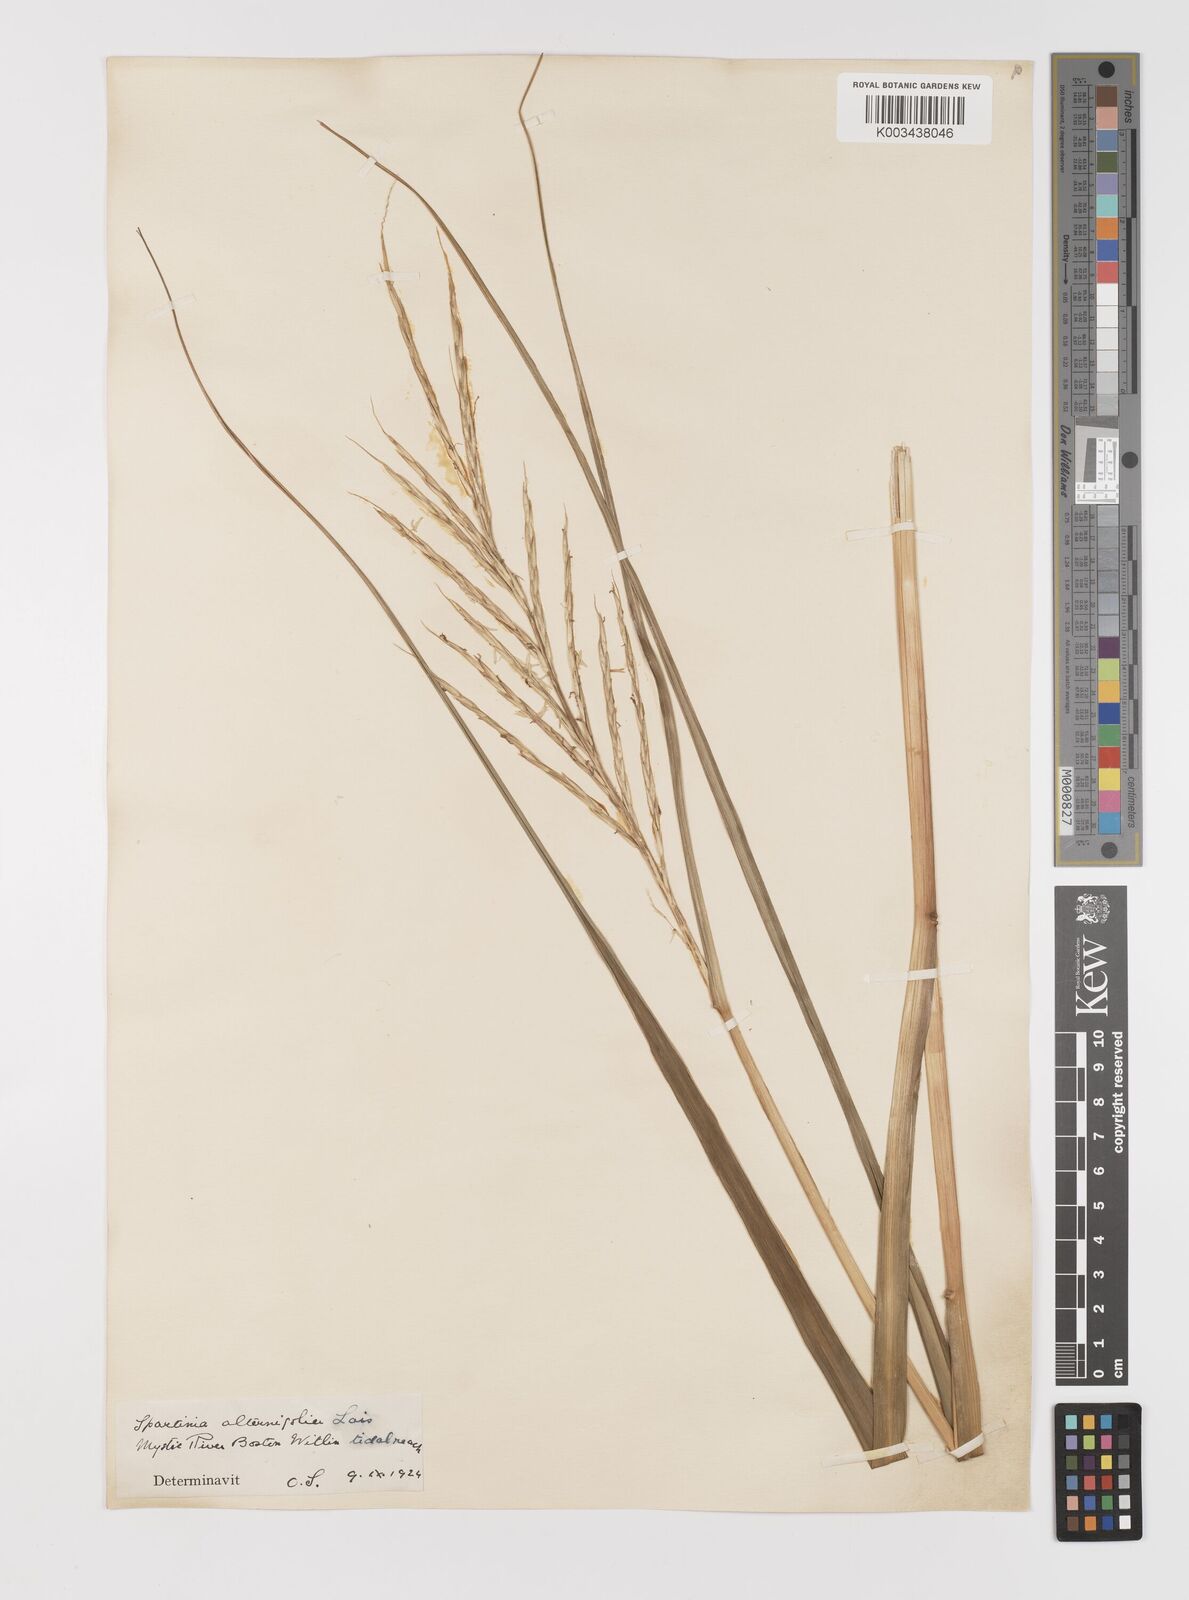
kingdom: Plantae
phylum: Tracheophyta
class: Liliopsida
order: Poales
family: Poaceae
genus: Sporobolus
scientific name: Sporobolus alterniflorus
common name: Atlantic cordgrass
